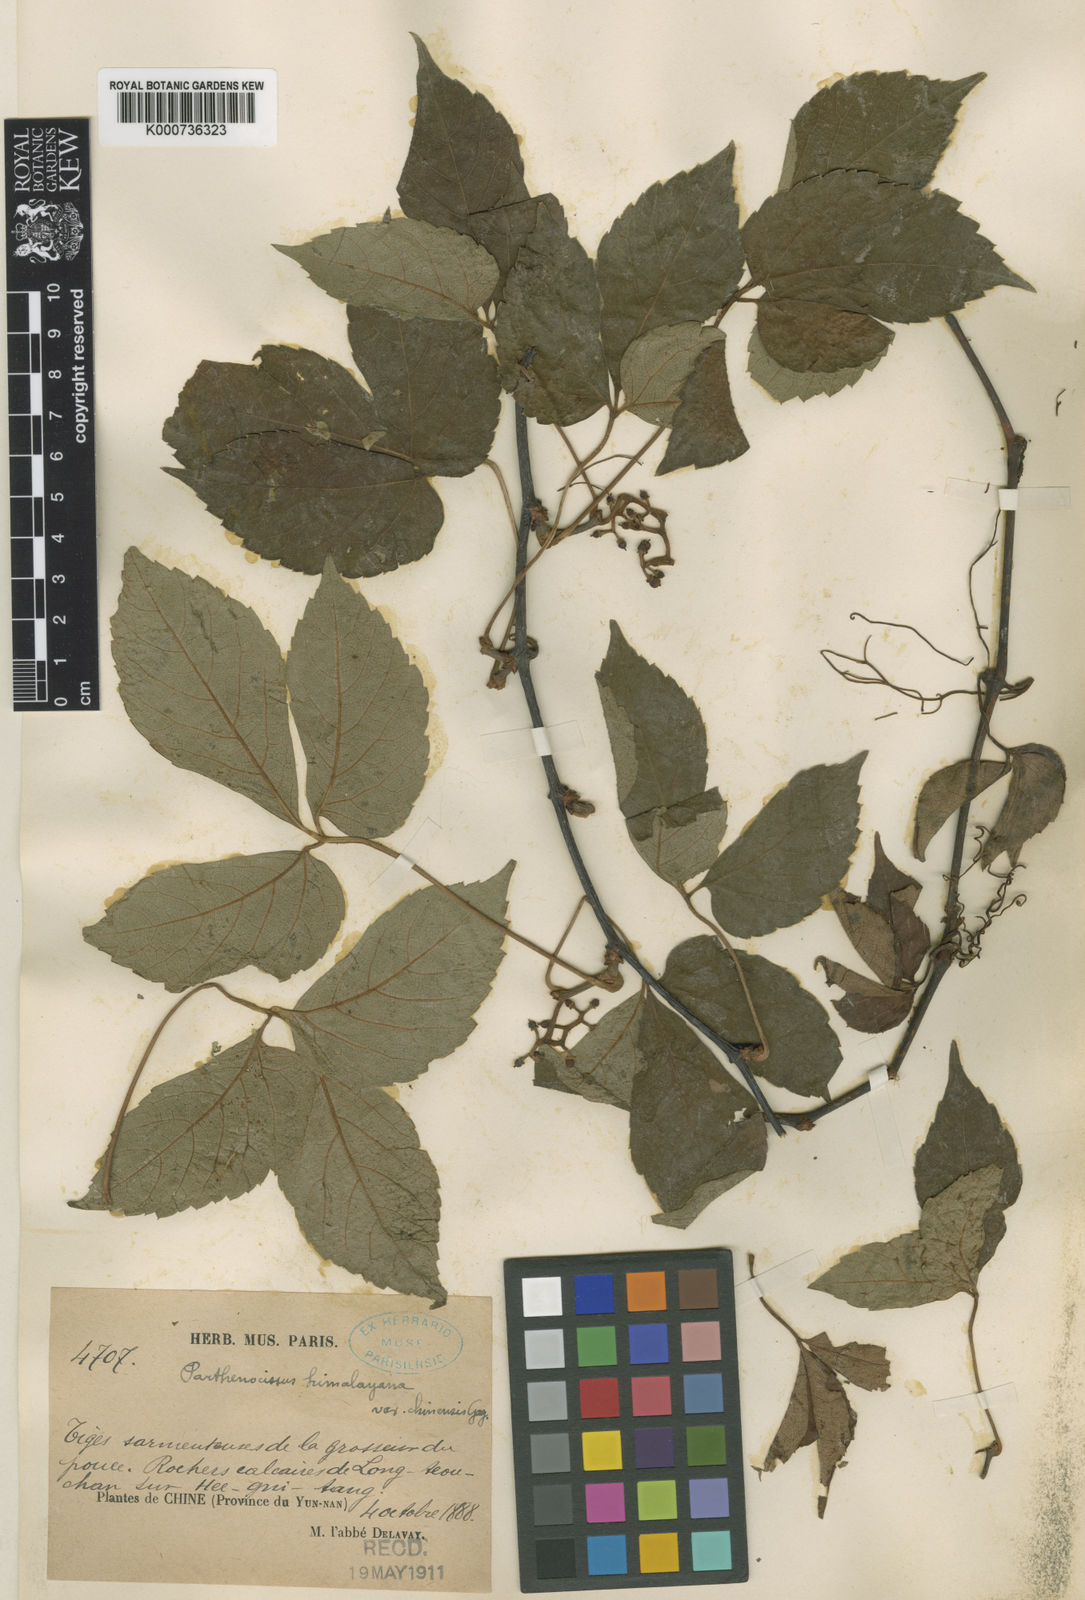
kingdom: Plantae
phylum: Tracheophyta
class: Magnoliopsida
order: Vitales
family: Vitaceae
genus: Parthenocissus
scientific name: Parthenocissus semicordata
